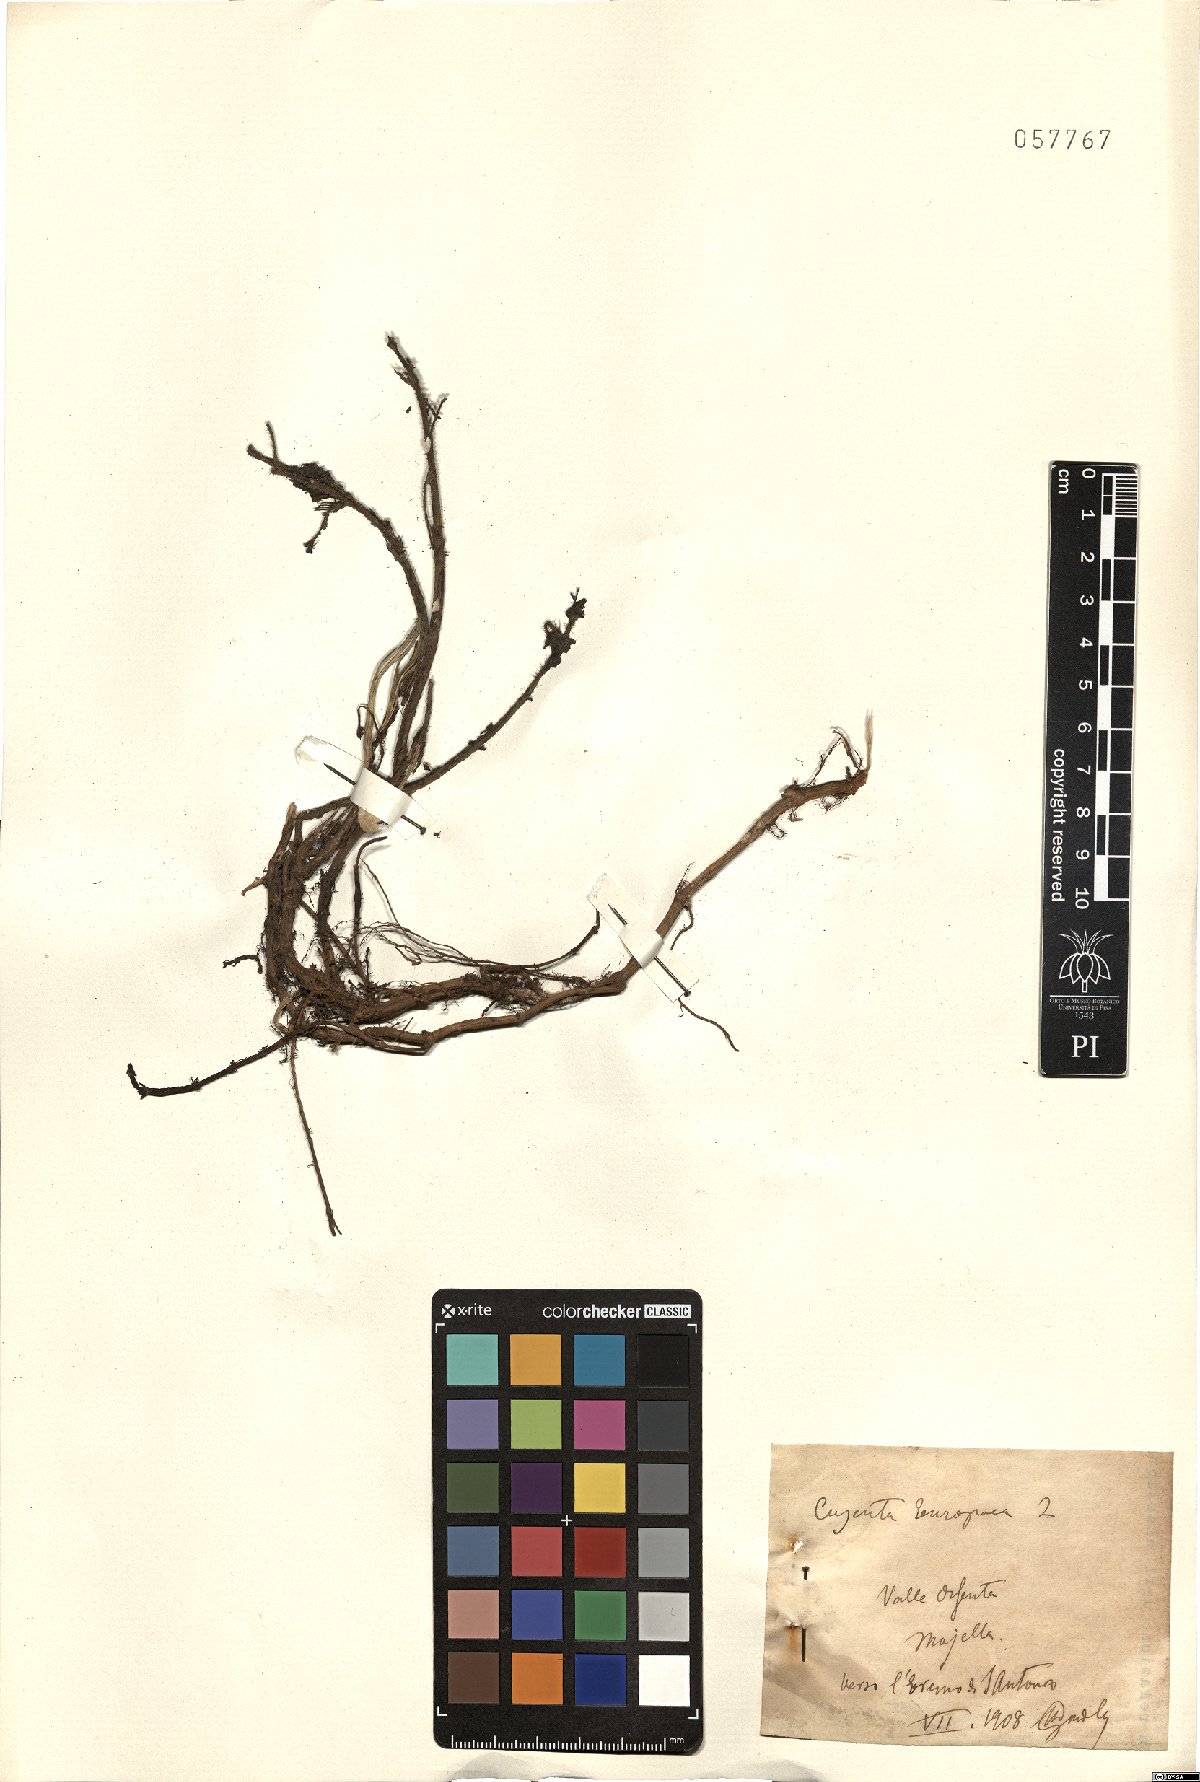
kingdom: Plantae
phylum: Tracheophyta
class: Magnoliopsida
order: Solanales
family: Convolvulaceae
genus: Cuscuta
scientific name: Cuscuta europaea
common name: Greater dodder
